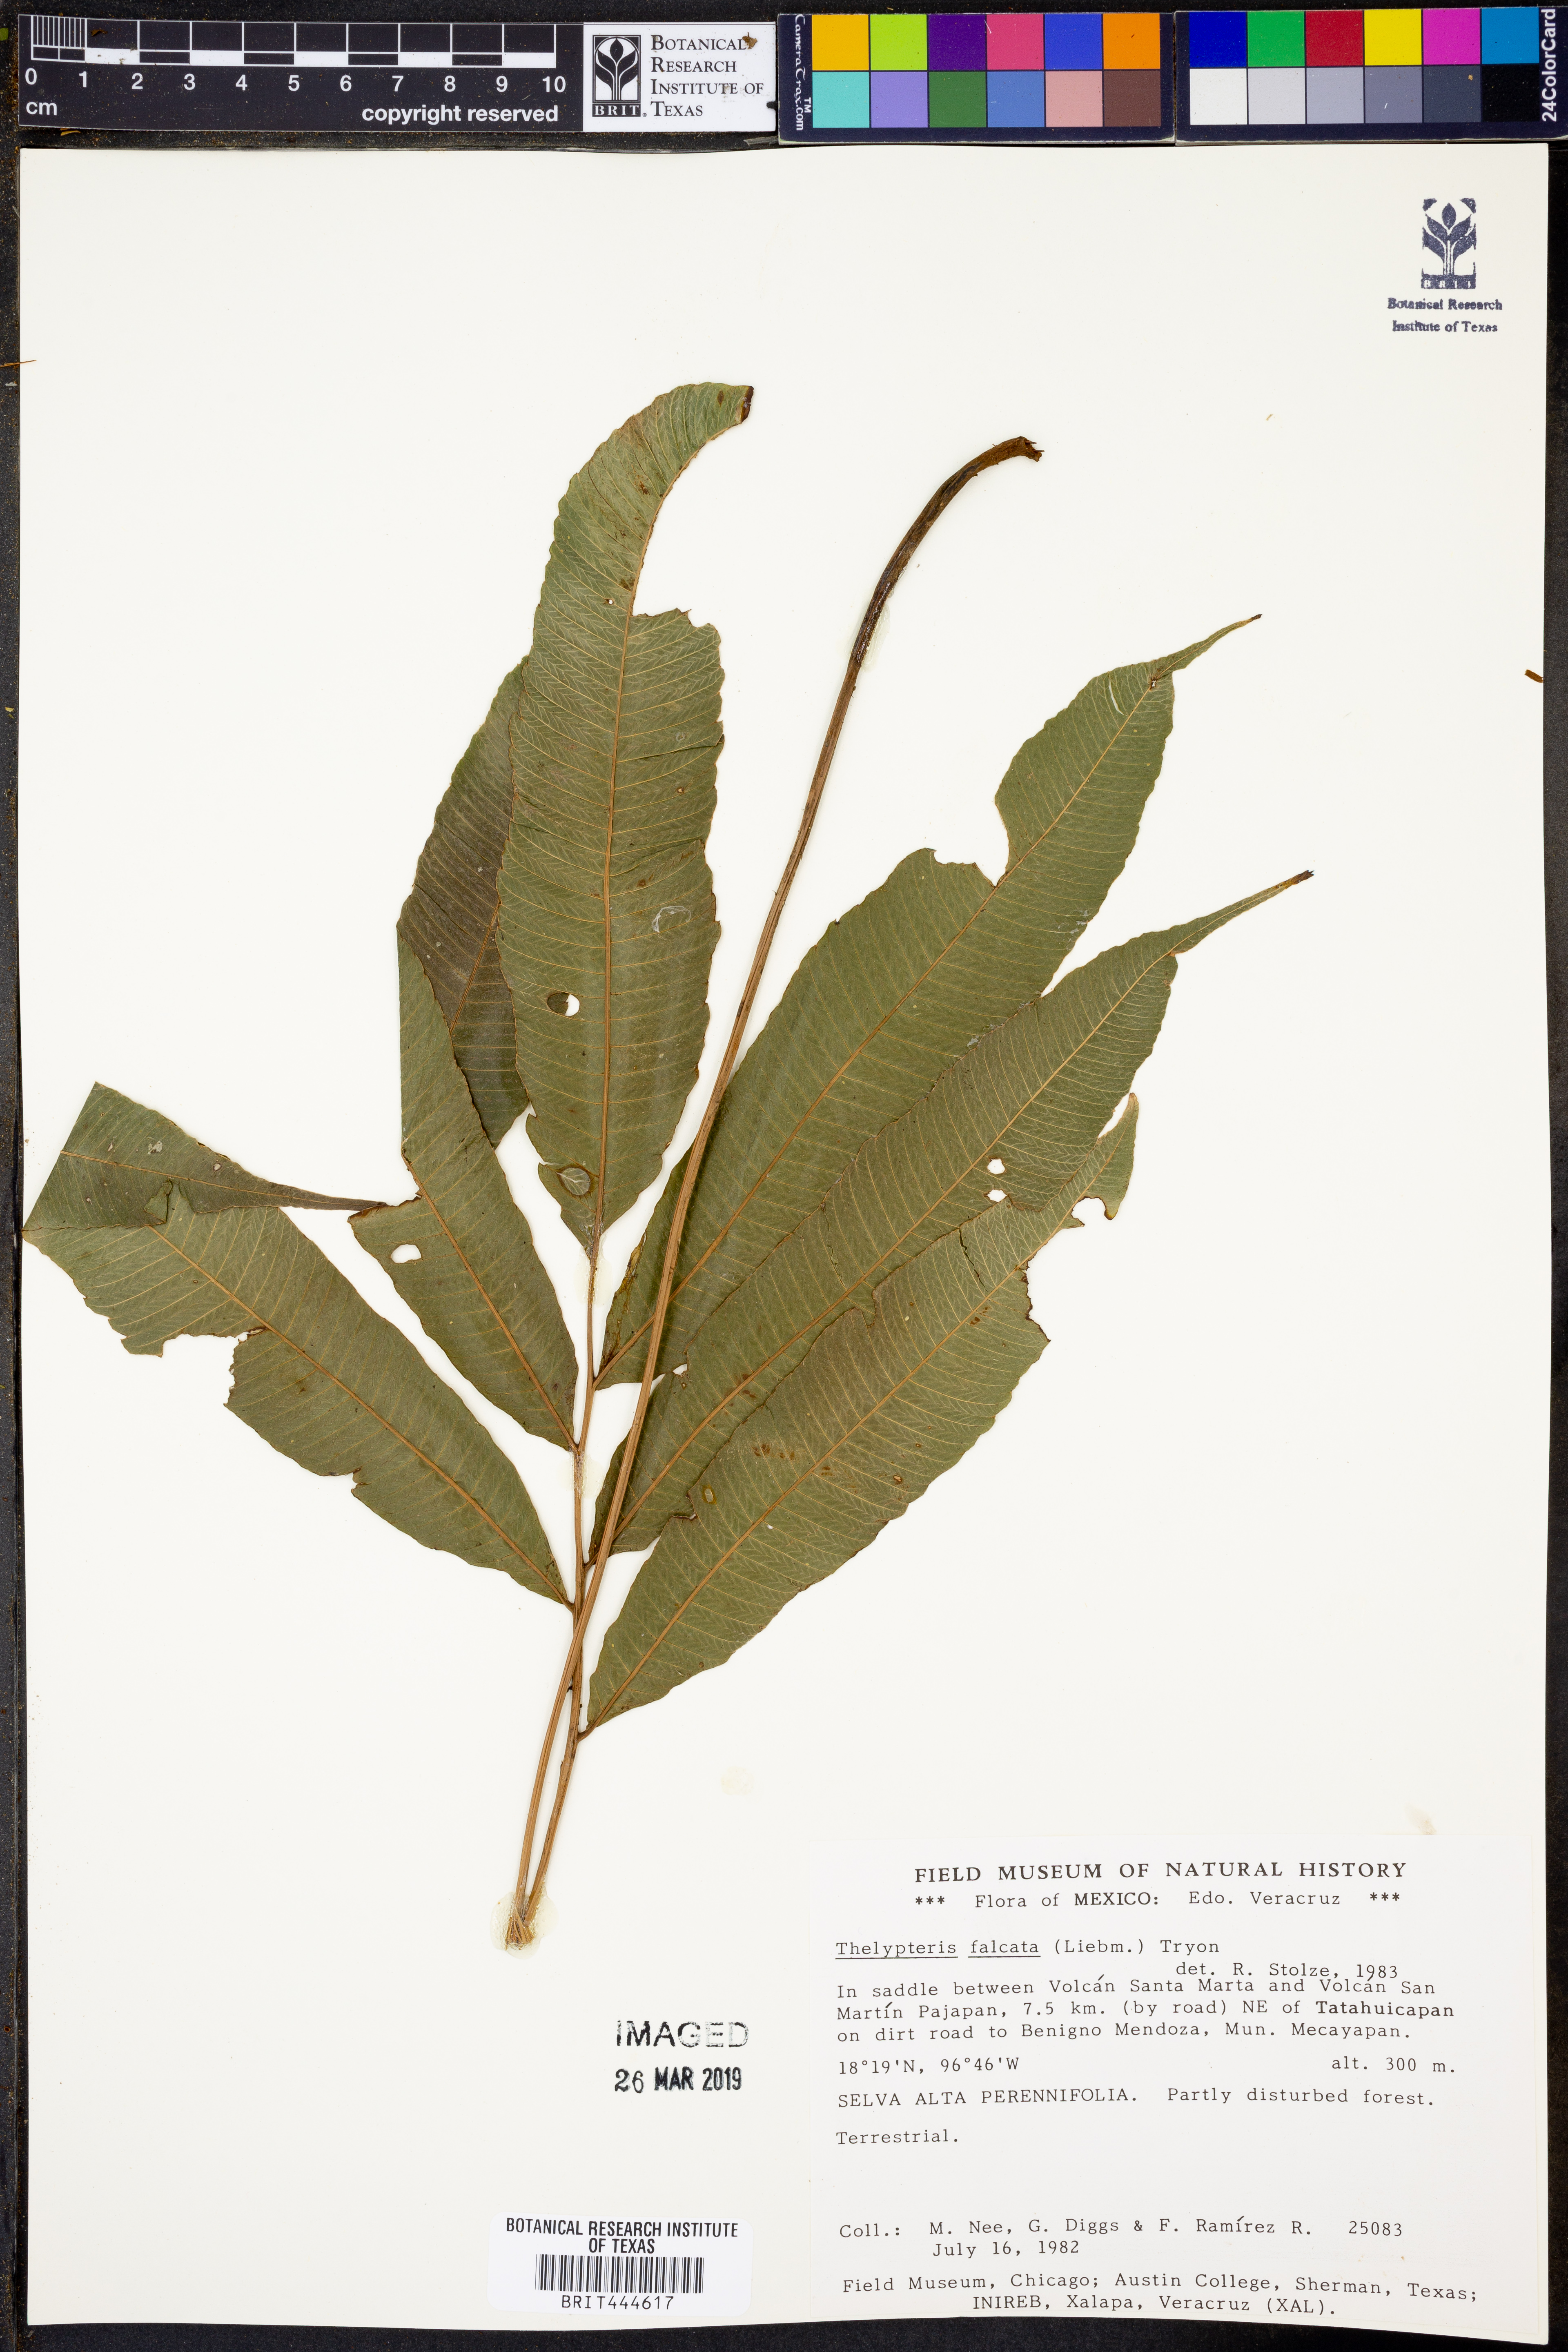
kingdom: Plantae
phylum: Tracheophyta
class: Polypodiopsida
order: Polypodiales
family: Thelypteridaceae
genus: Meniscium
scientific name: Meniscium falcatum
